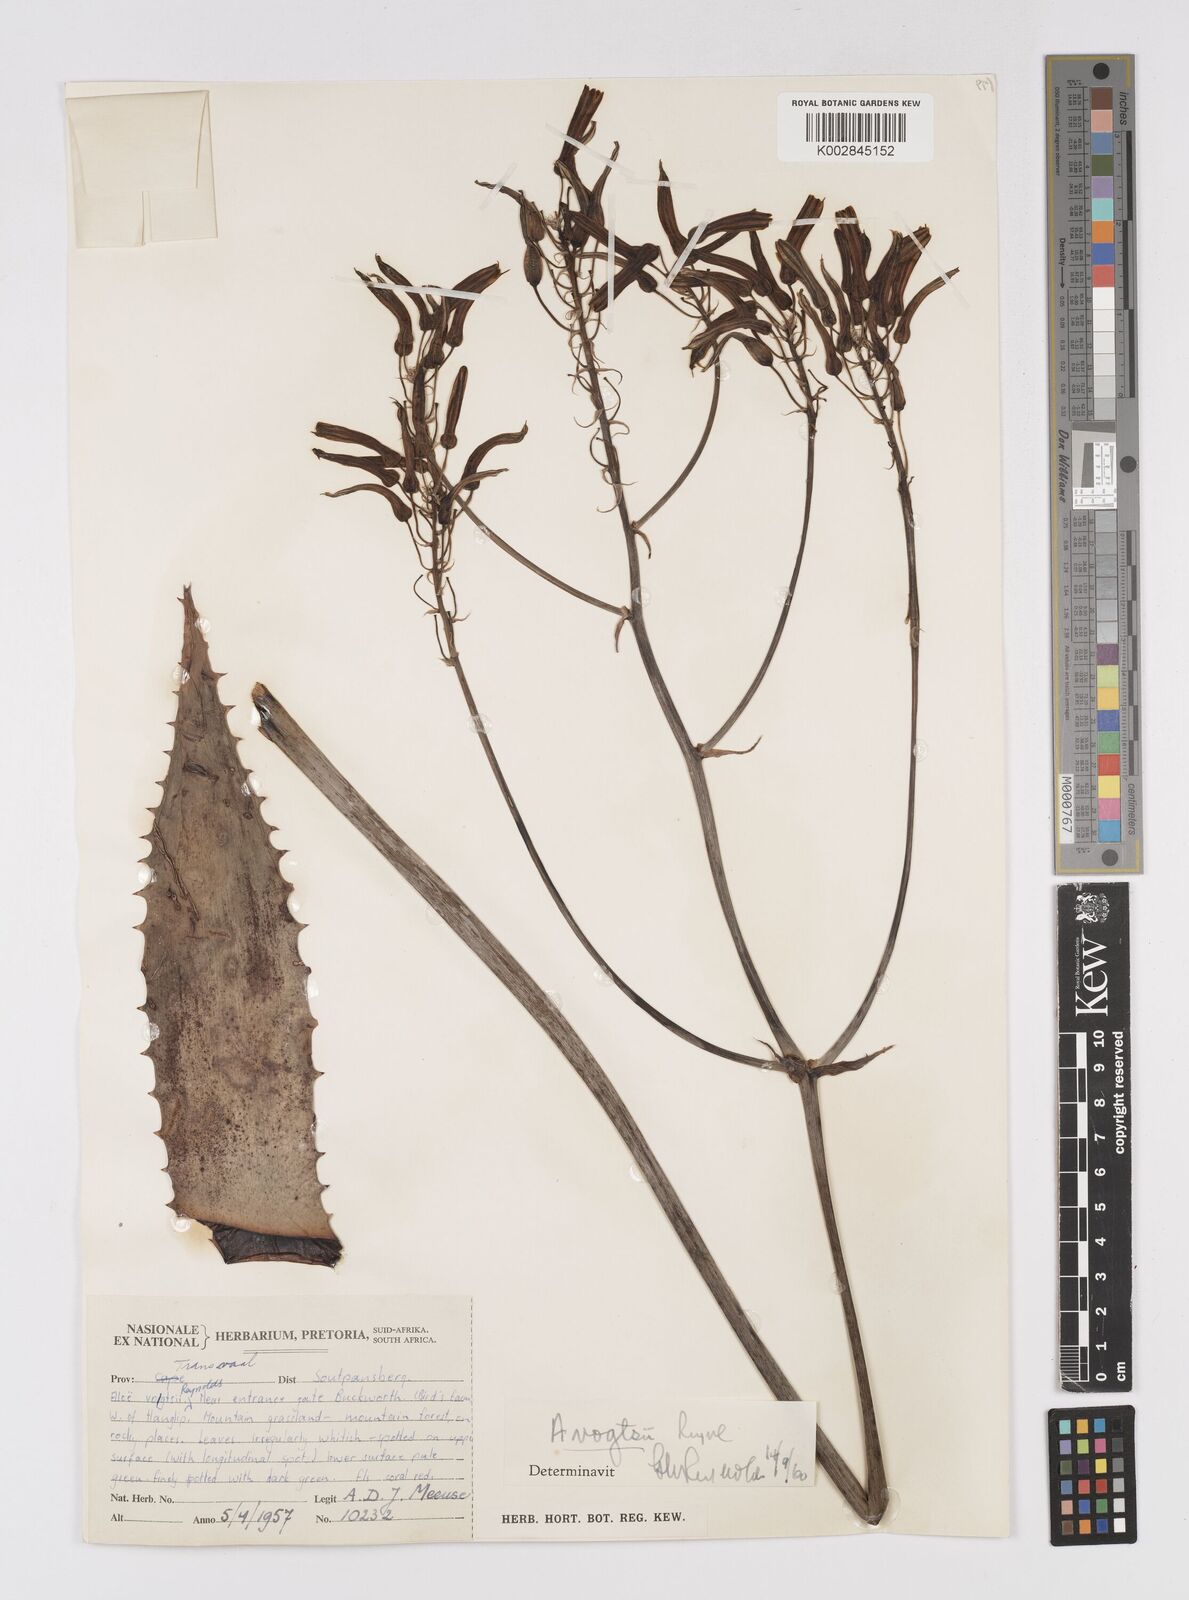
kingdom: Plantae
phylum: Tracheophyta
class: Liliopsida
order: Asparagales
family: Asphodelaceae
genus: Aloe
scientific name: Aloe vogtsii
